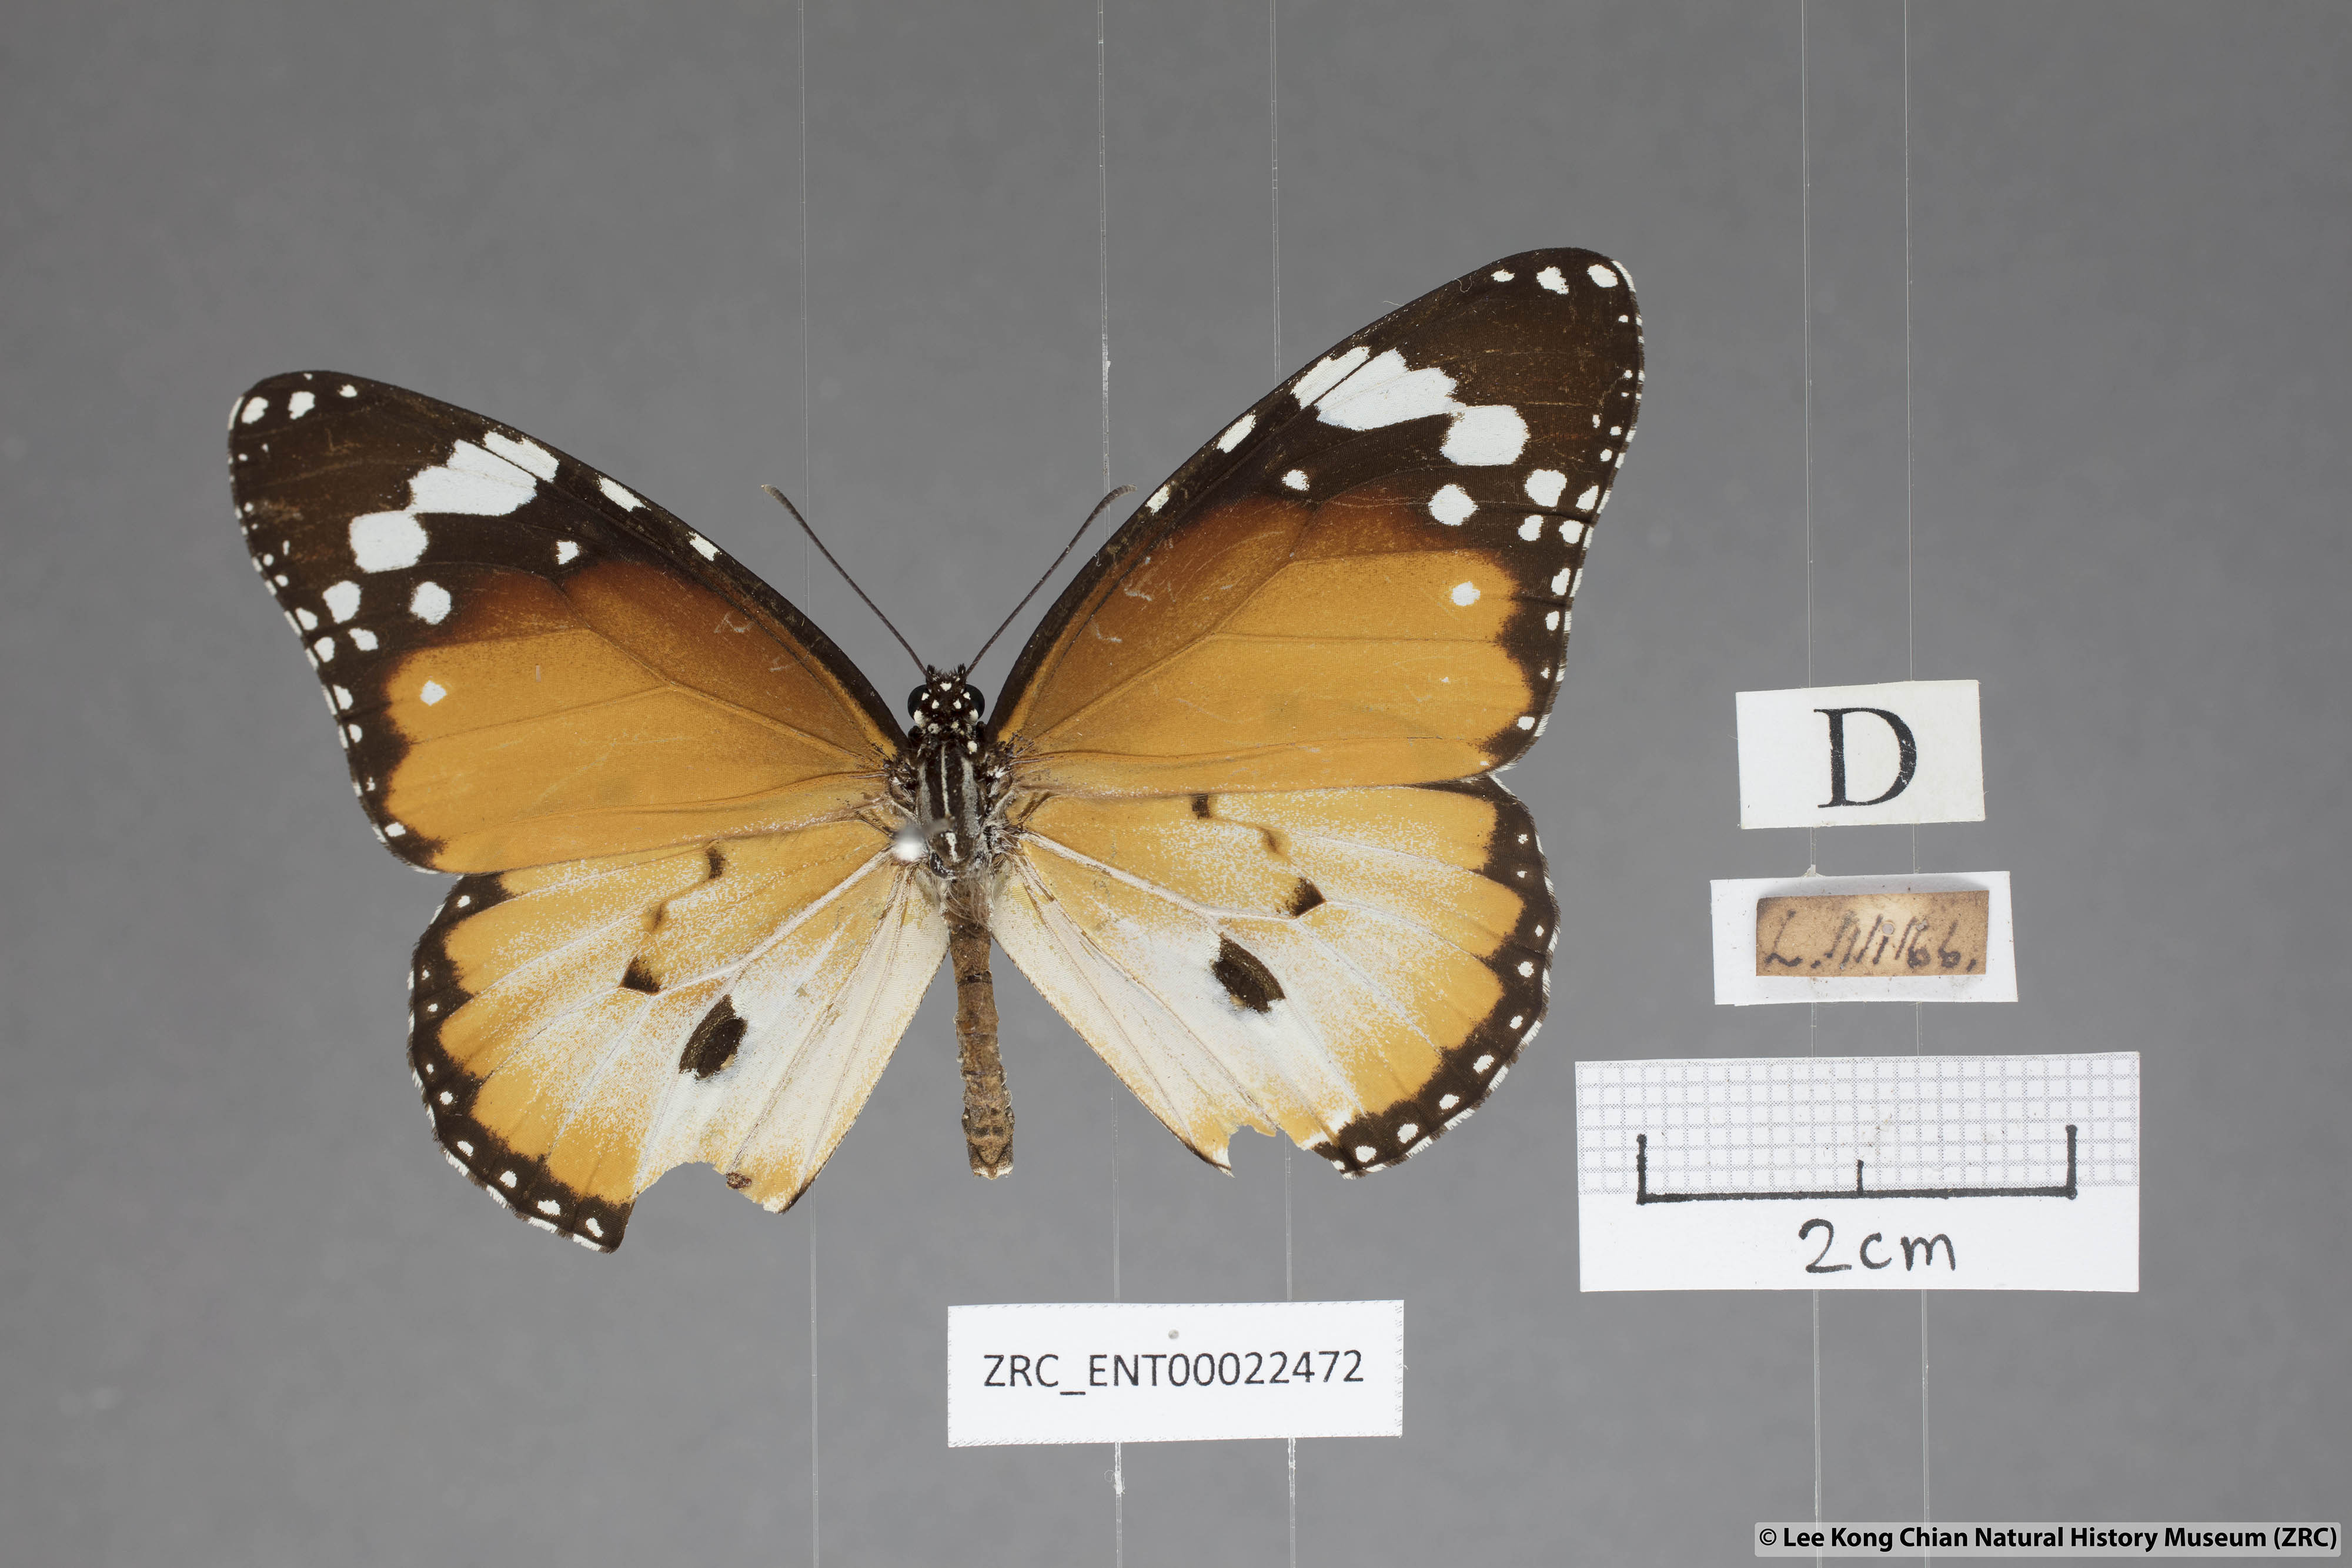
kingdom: Animalia
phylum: Arthropoda
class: Insecta
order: Lepidoptera
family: Nymphalidae
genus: Danaus
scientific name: Danaus chrysippus
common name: Plain tiger
